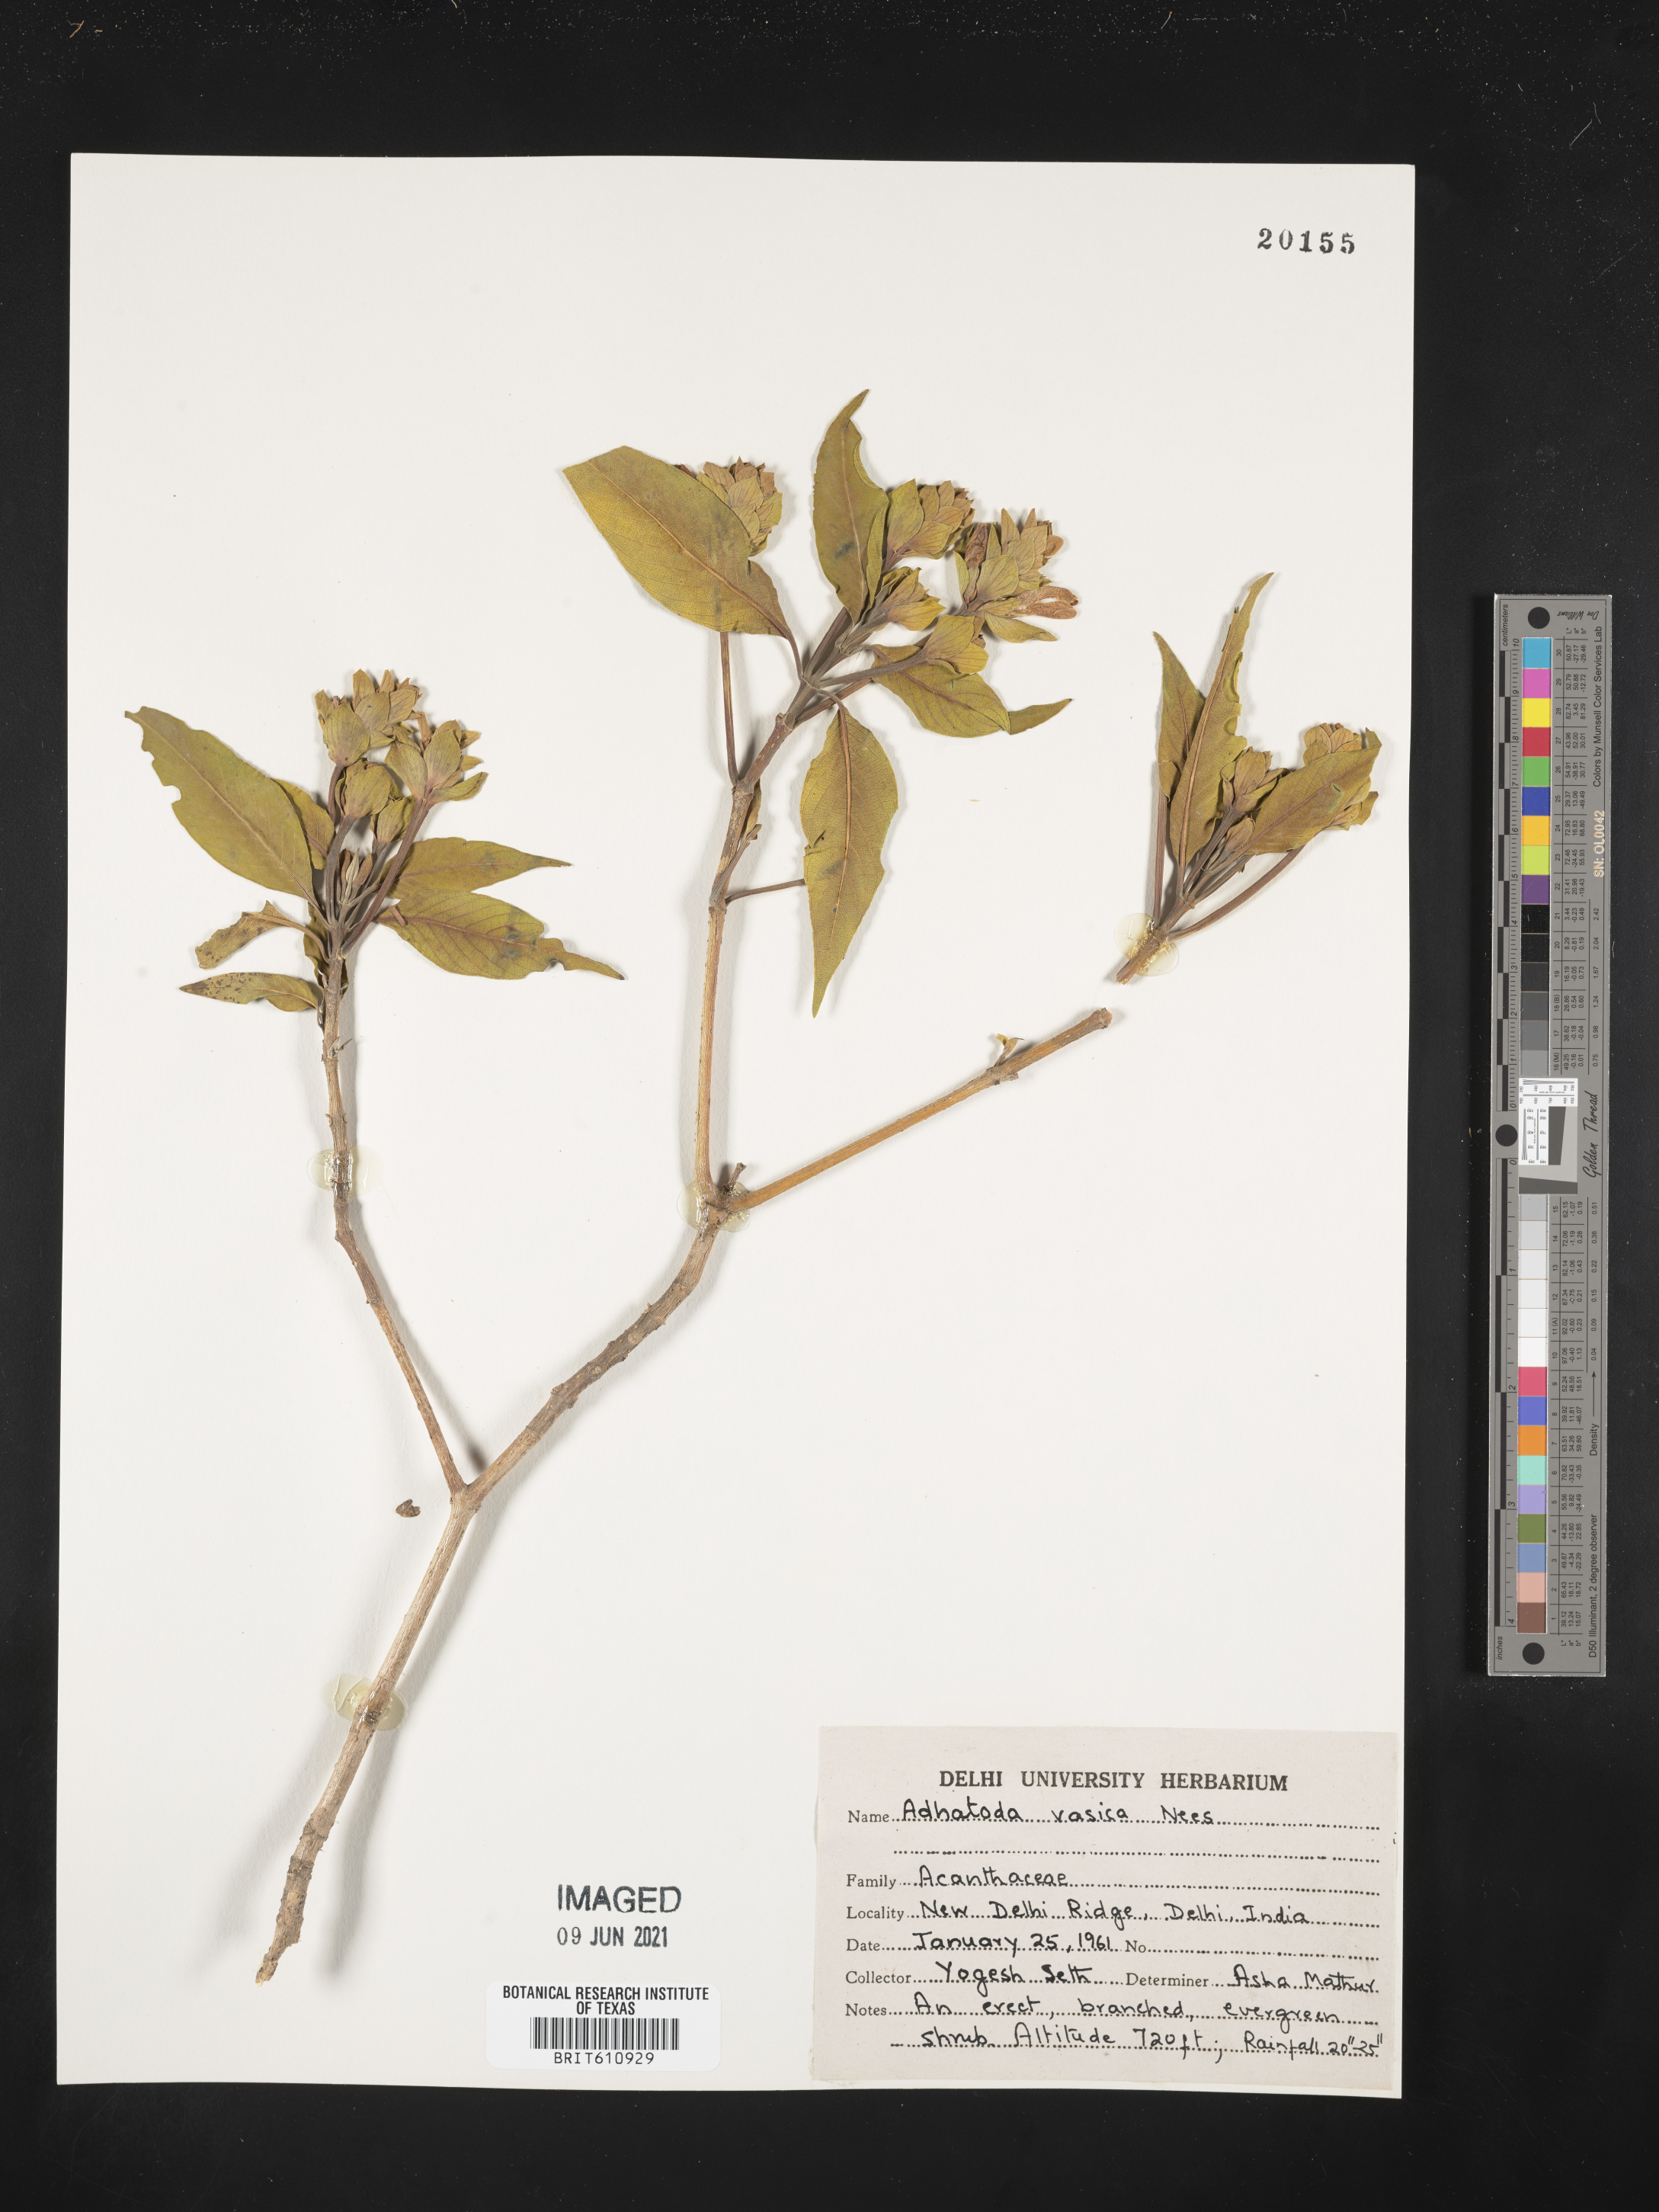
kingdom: Plantae
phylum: Tracheophyta
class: Magnoliopsida
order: Lamiales
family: Acanthaceae
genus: Justicia
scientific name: Justicia adhatoda
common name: Malabar nut
